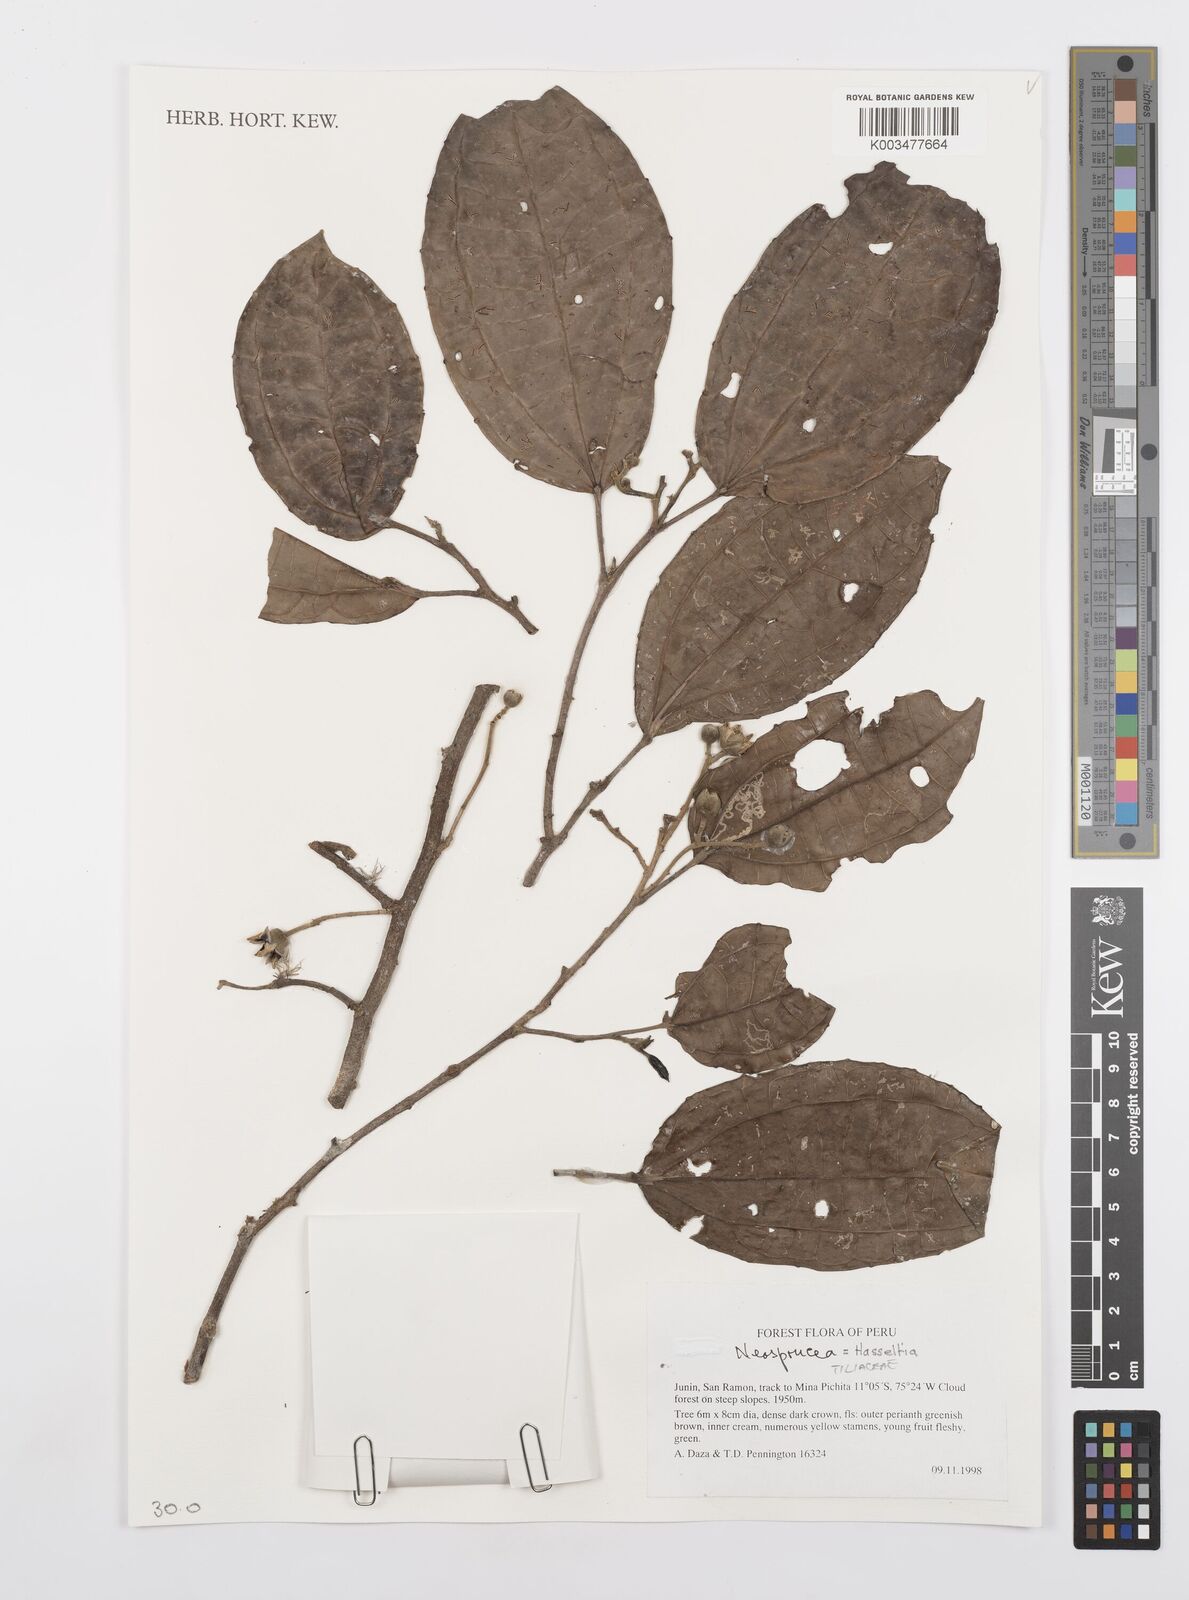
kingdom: Plantae
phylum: Tracheophyta
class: Magnoliopsida
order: Malpighiales
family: Salicaceae
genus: Neosprucea
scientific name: Neosprucea
